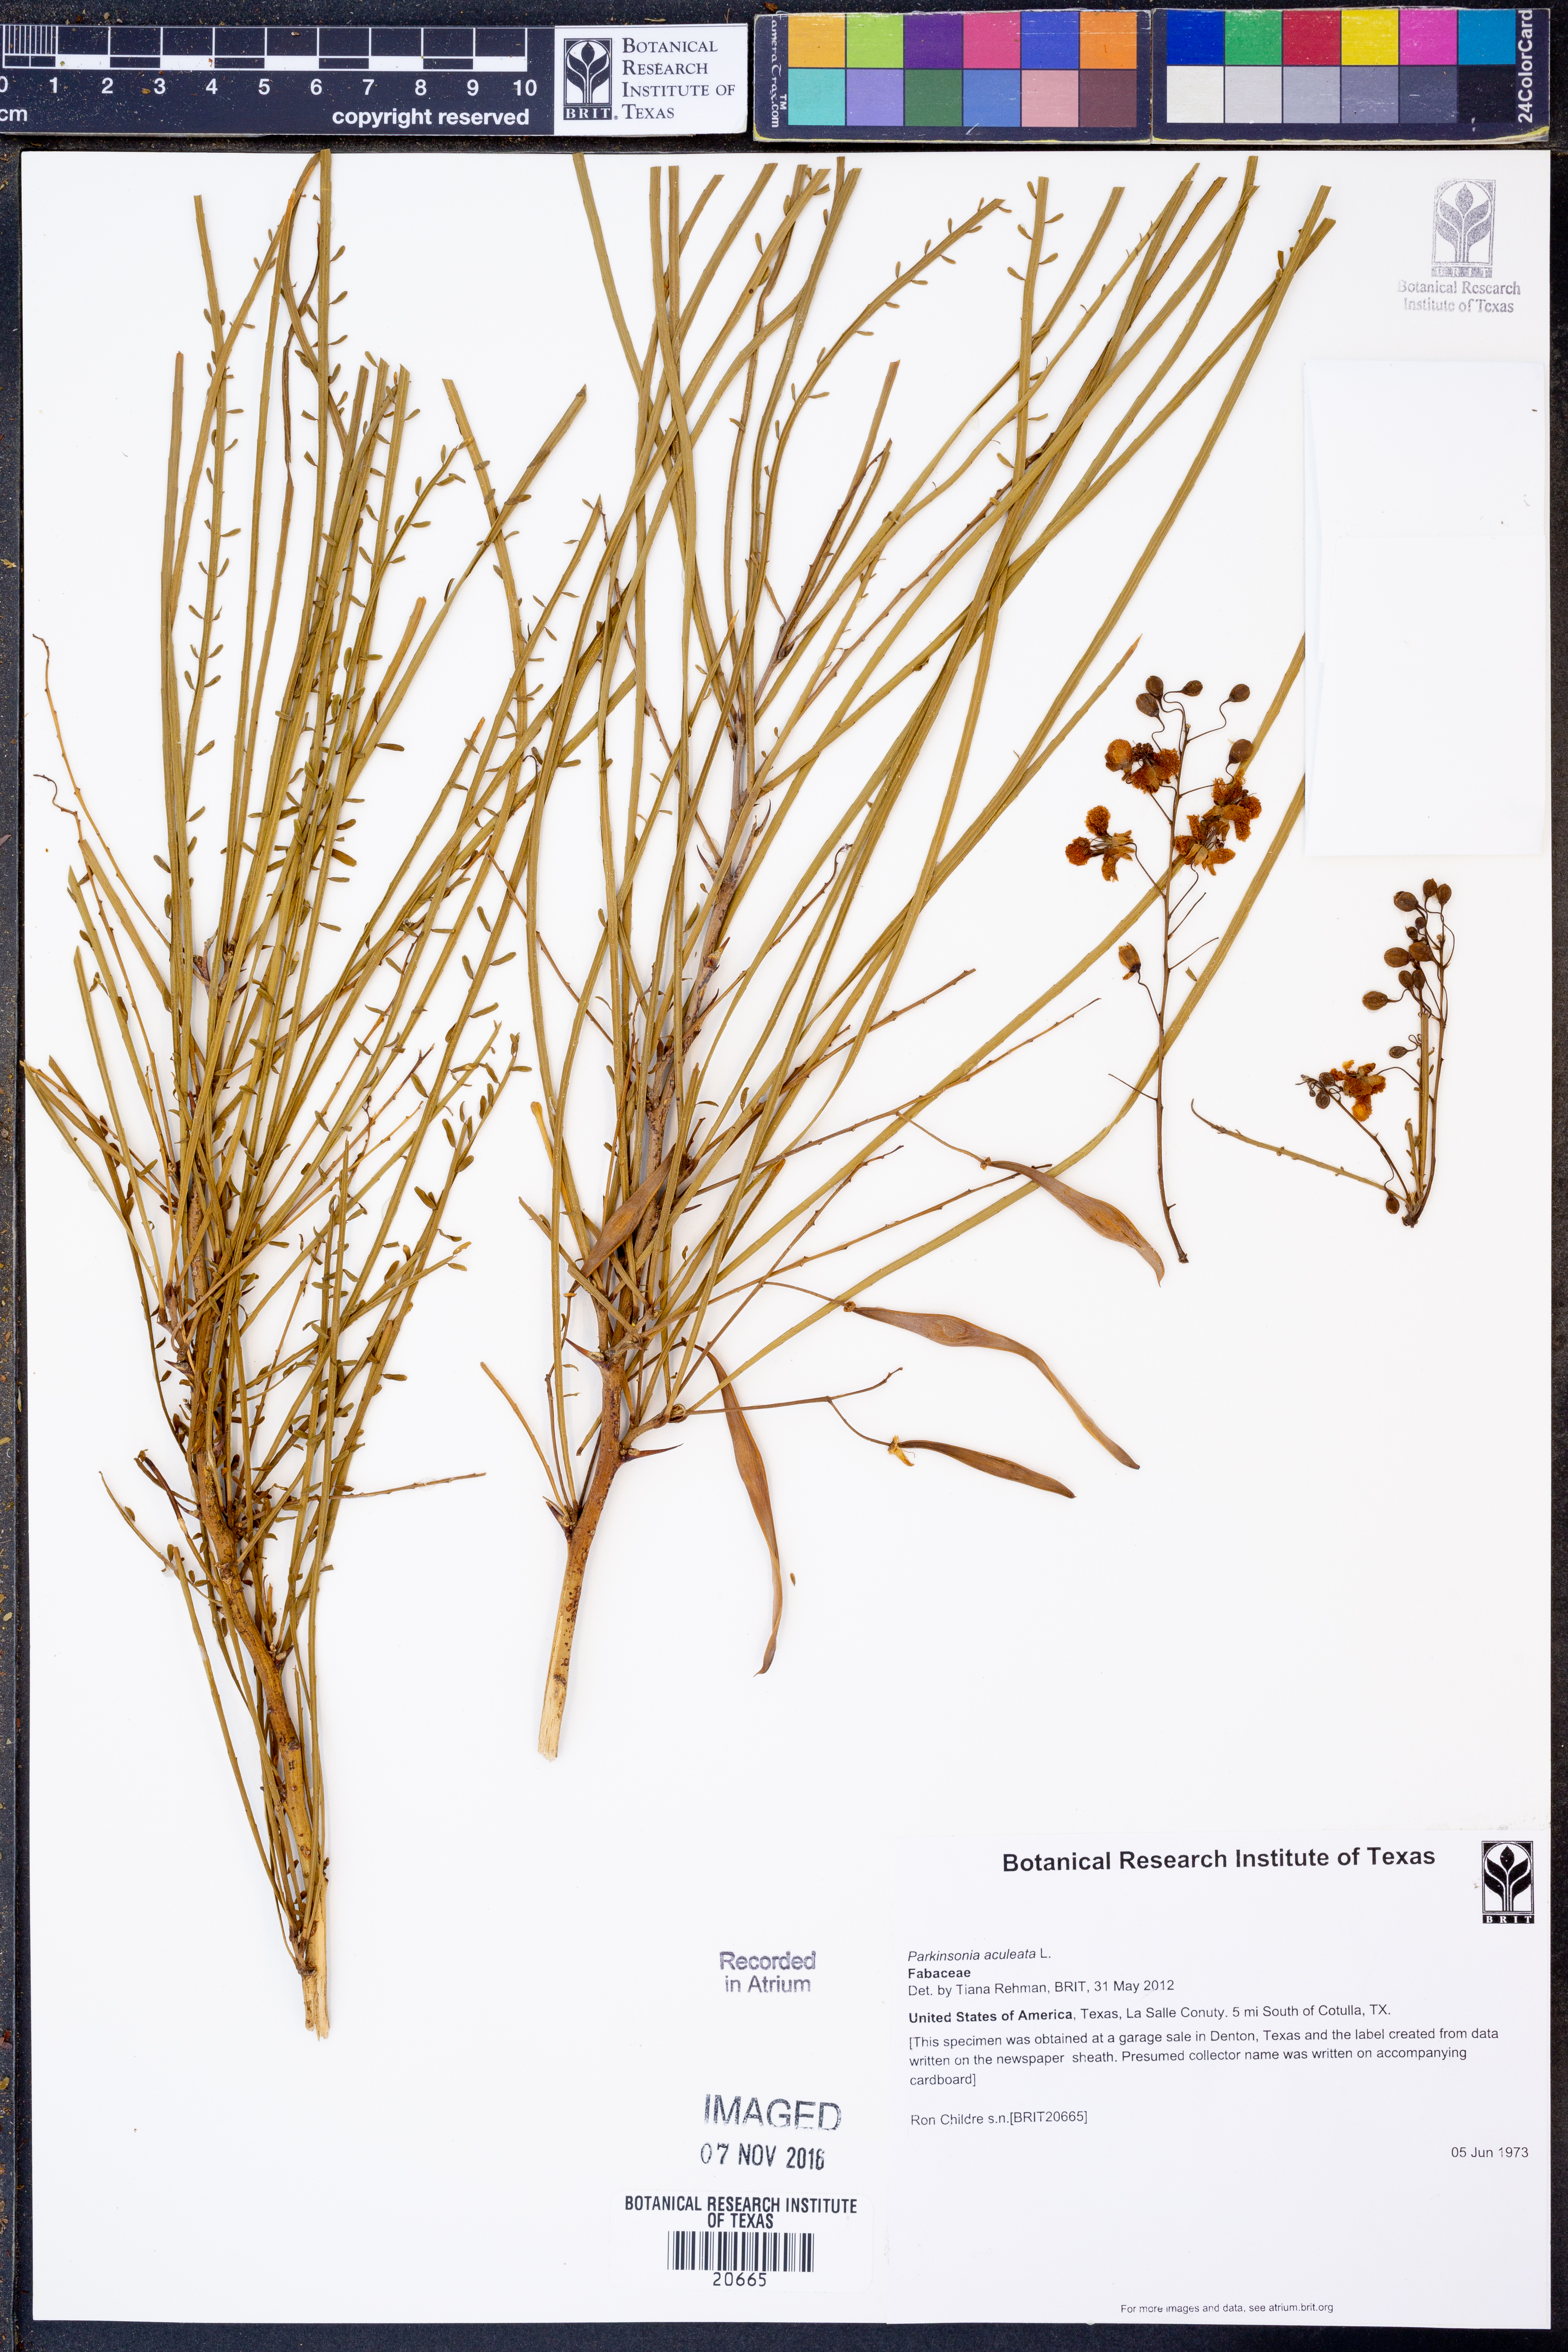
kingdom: Plantae
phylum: Tracheophyta
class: Magnoliopsida
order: Fabales
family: Fabaceae
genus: Parkinsonia
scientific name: Parkinsonia aculeata
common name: Jerusalem thorn
